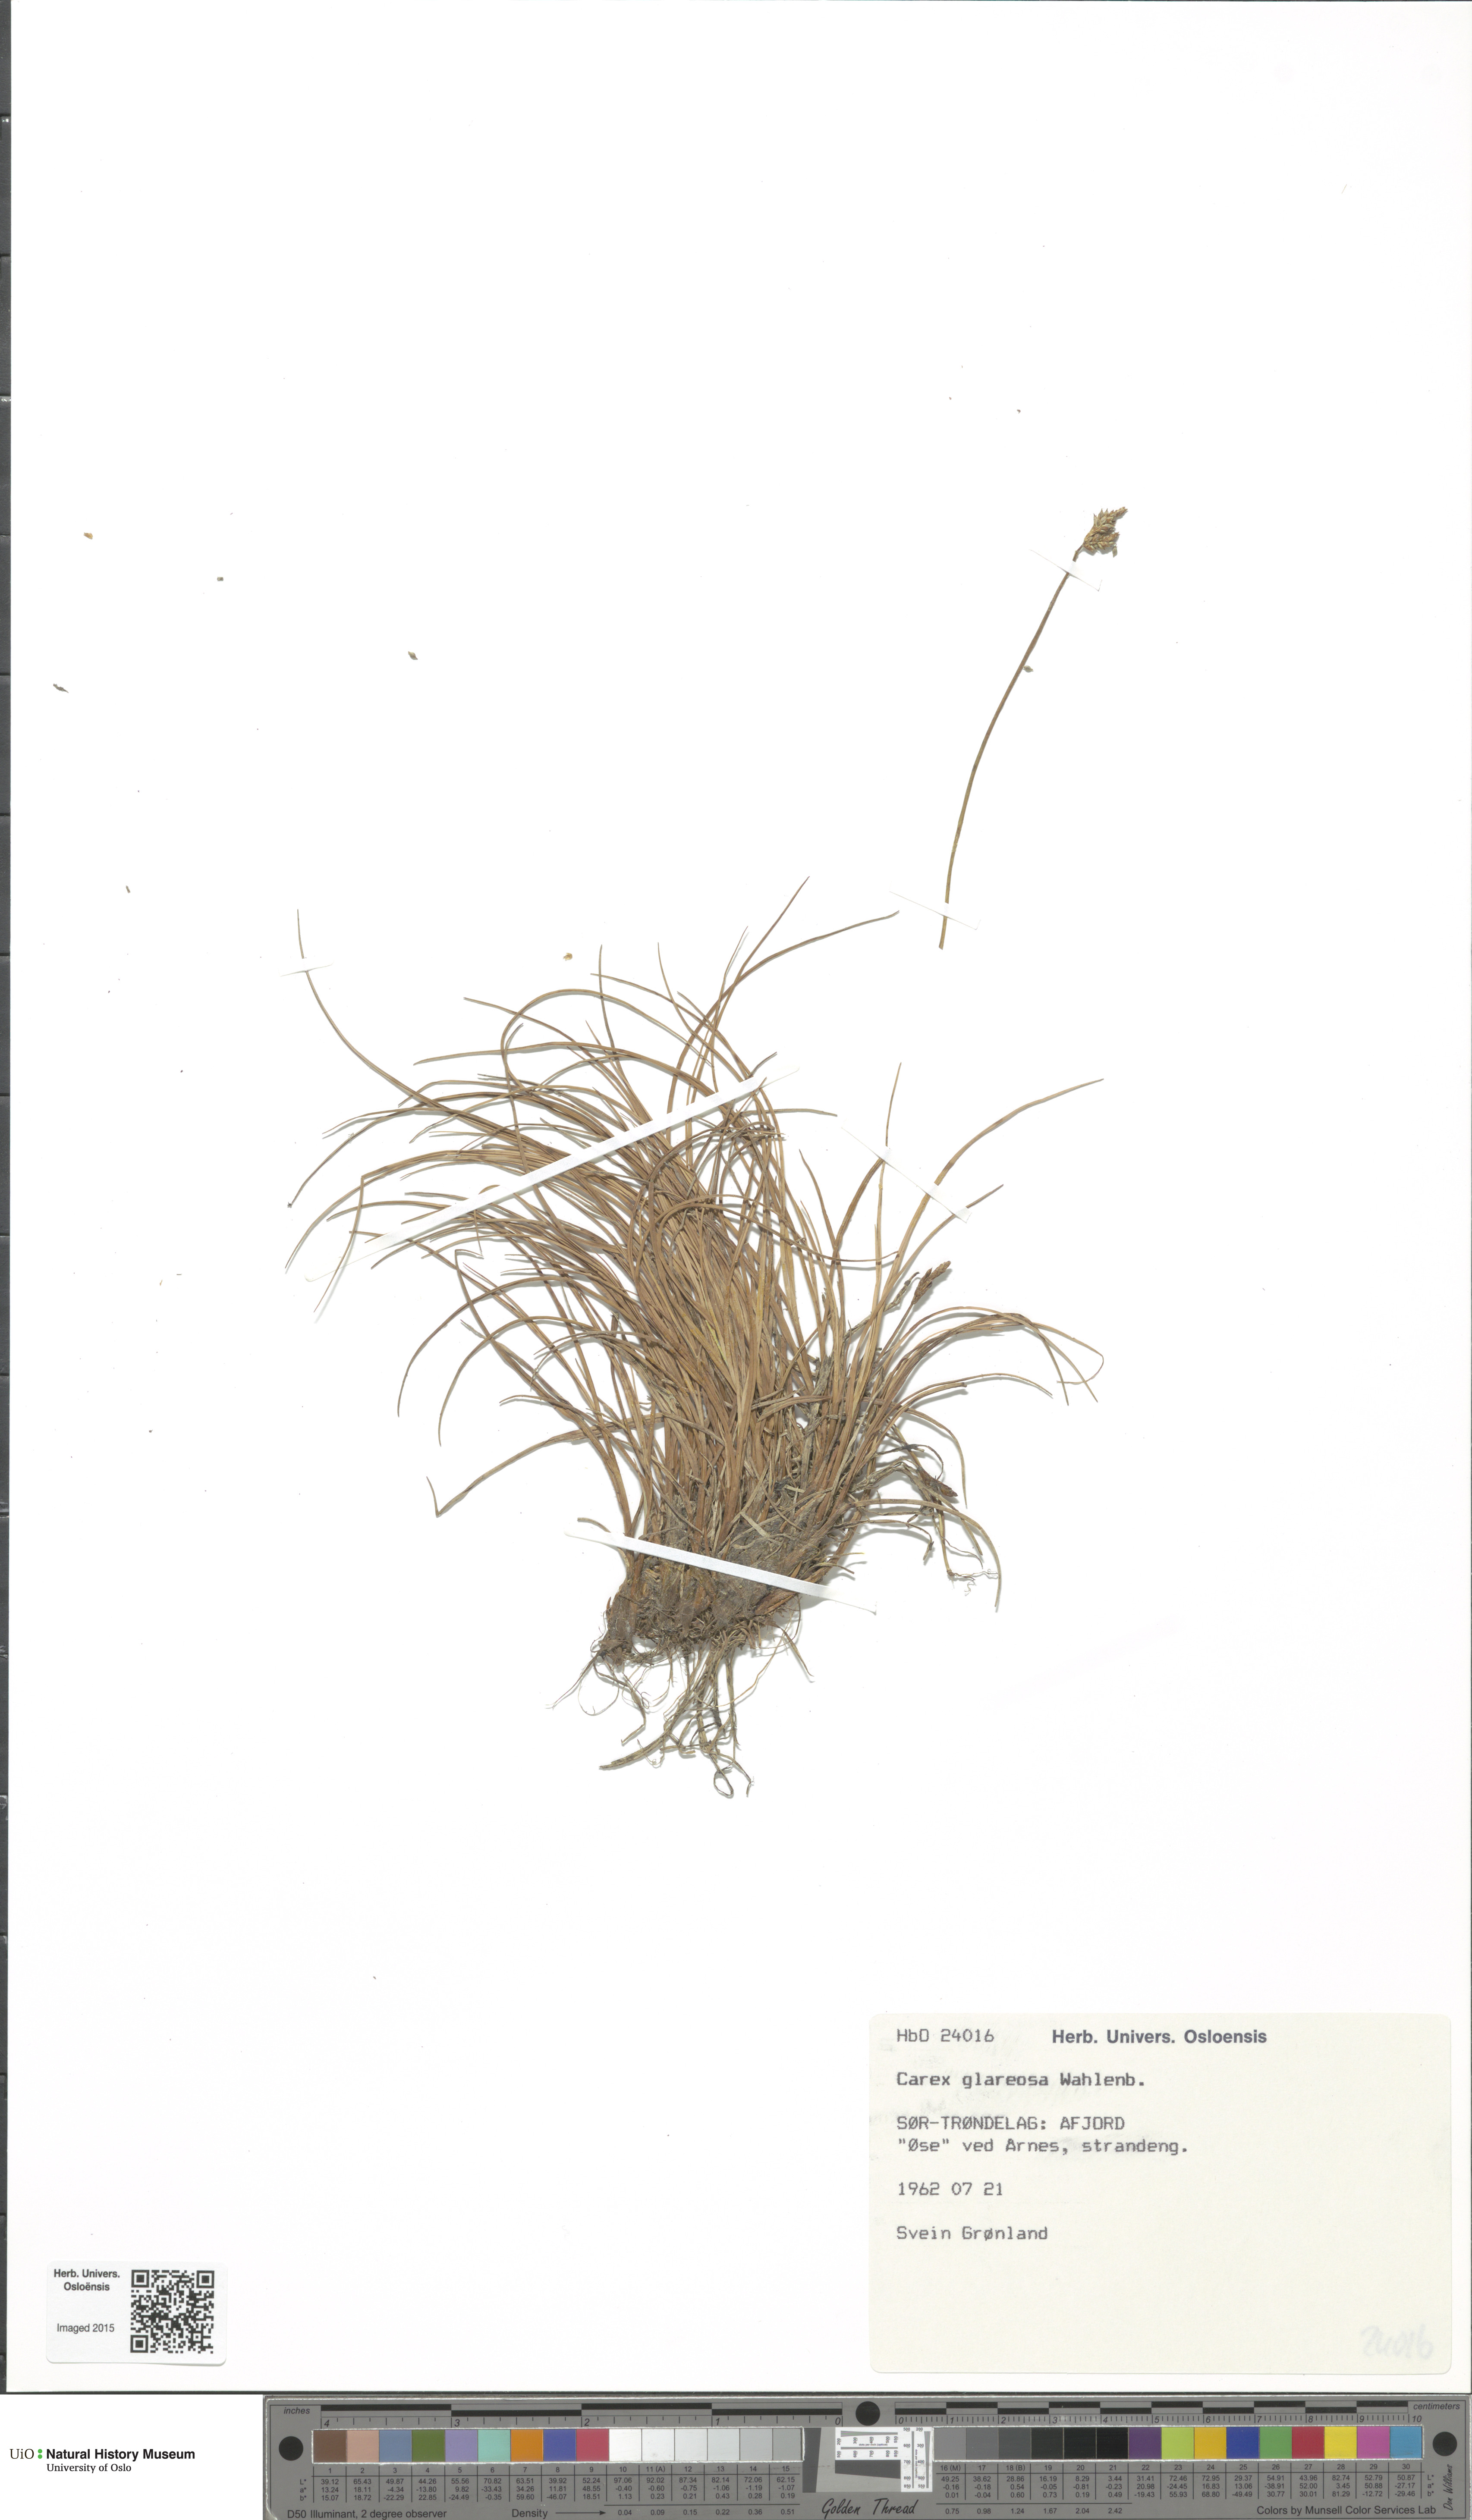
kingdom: Plantae
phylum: Tracheophyta
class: Liliopsida
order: Poales
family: Cyperaceae
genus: Carex
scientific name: Carex glareosa
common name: Clustered sedge
